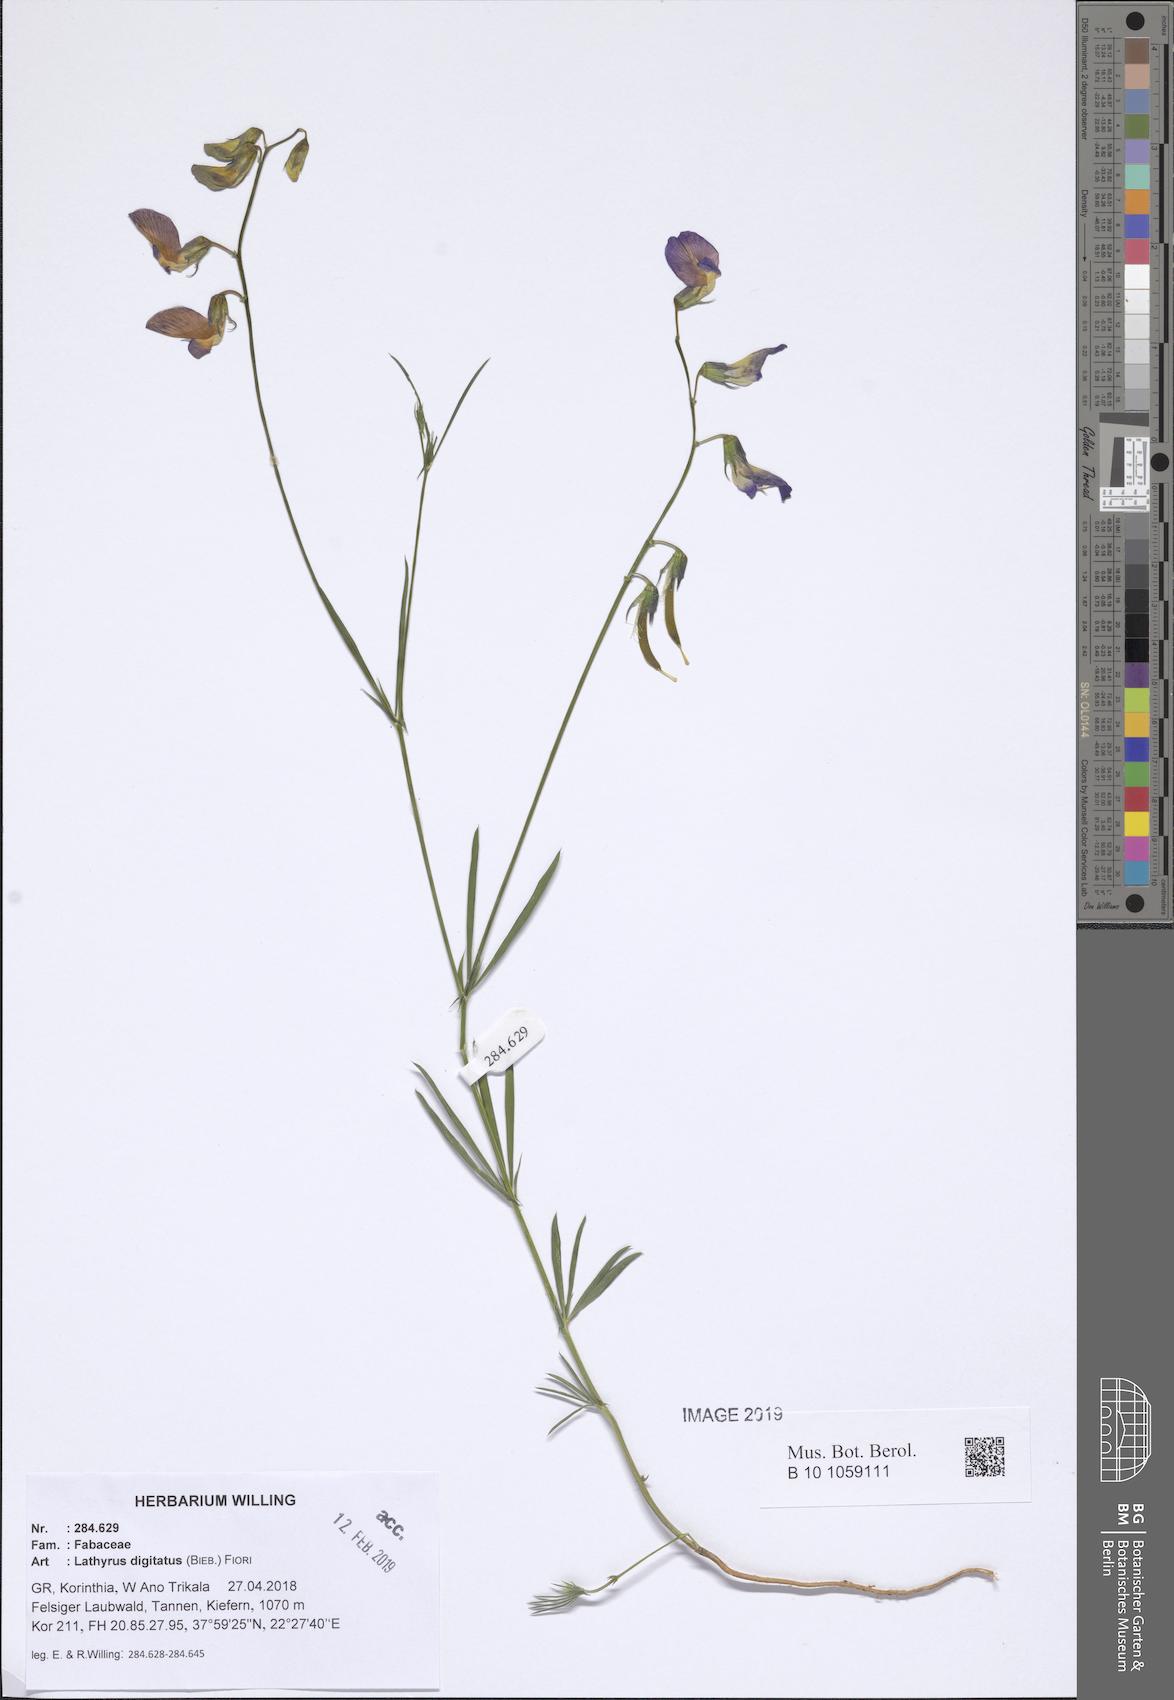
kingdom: Plantae
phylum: Tracheophyta
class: Magnoliopsida
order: Fabales
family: Fabaceae
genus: Lathyrus
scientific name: Lathyrus digitatus
